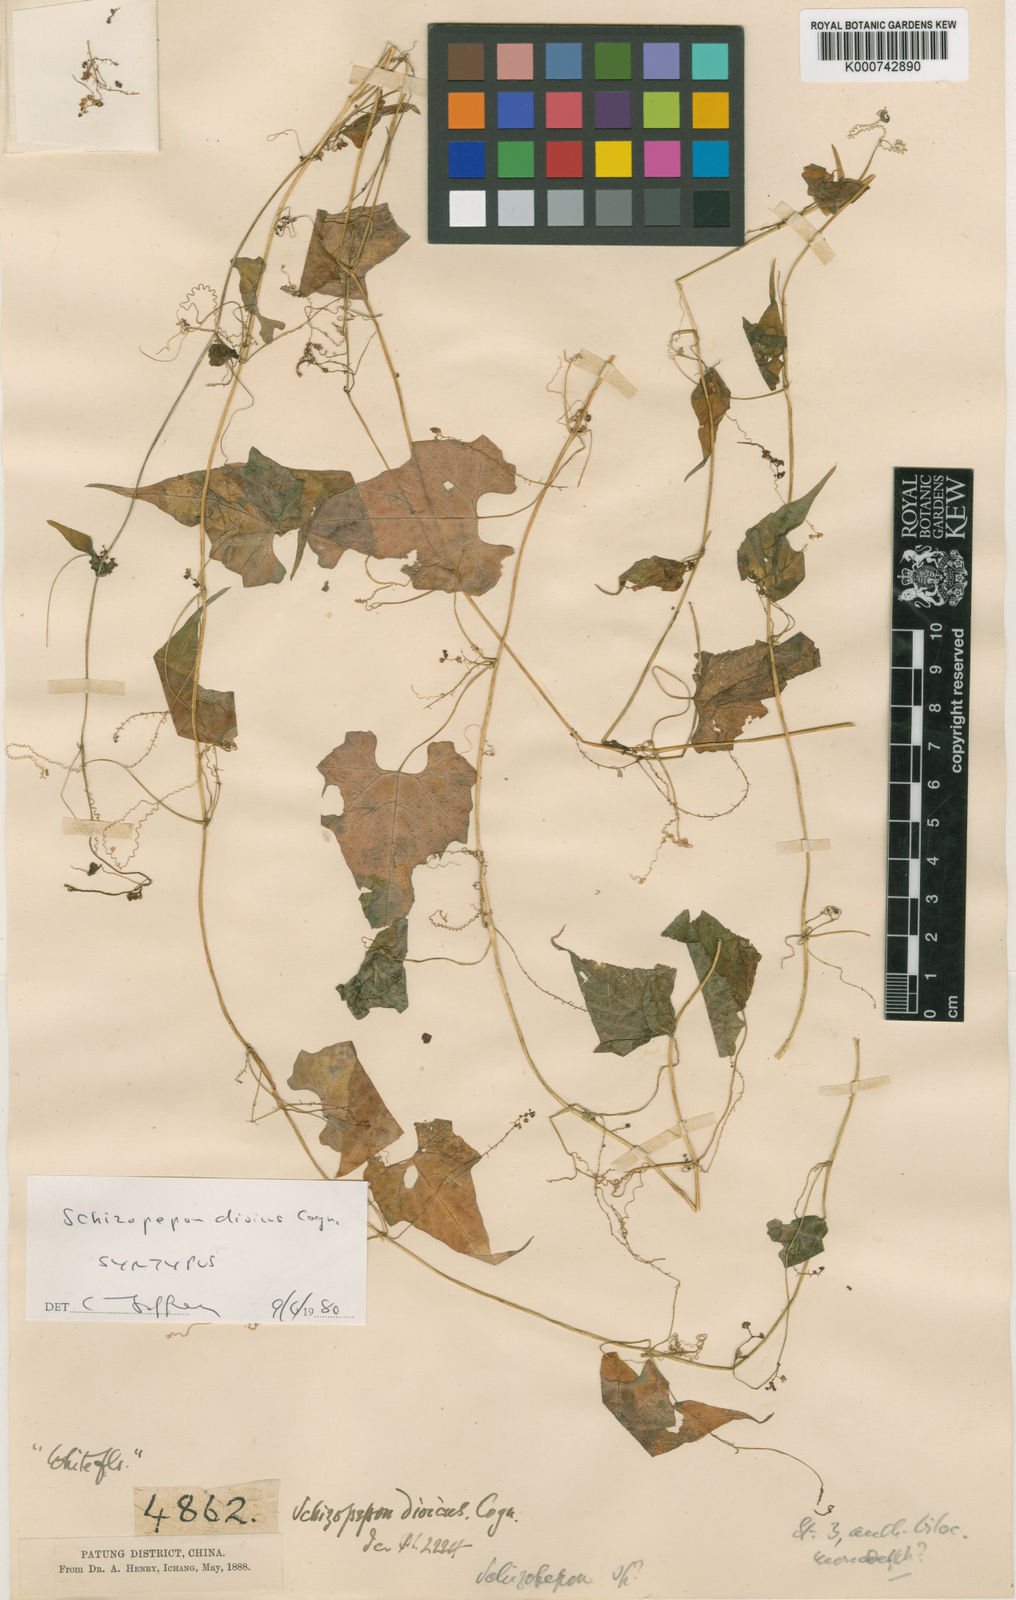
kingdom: Plantae
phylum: Tracheophyta
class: Magnoliopsida
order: Cucurbitales
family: Cucurbitaceae
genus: Schizopepon
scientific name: Schizopepon dioicus
